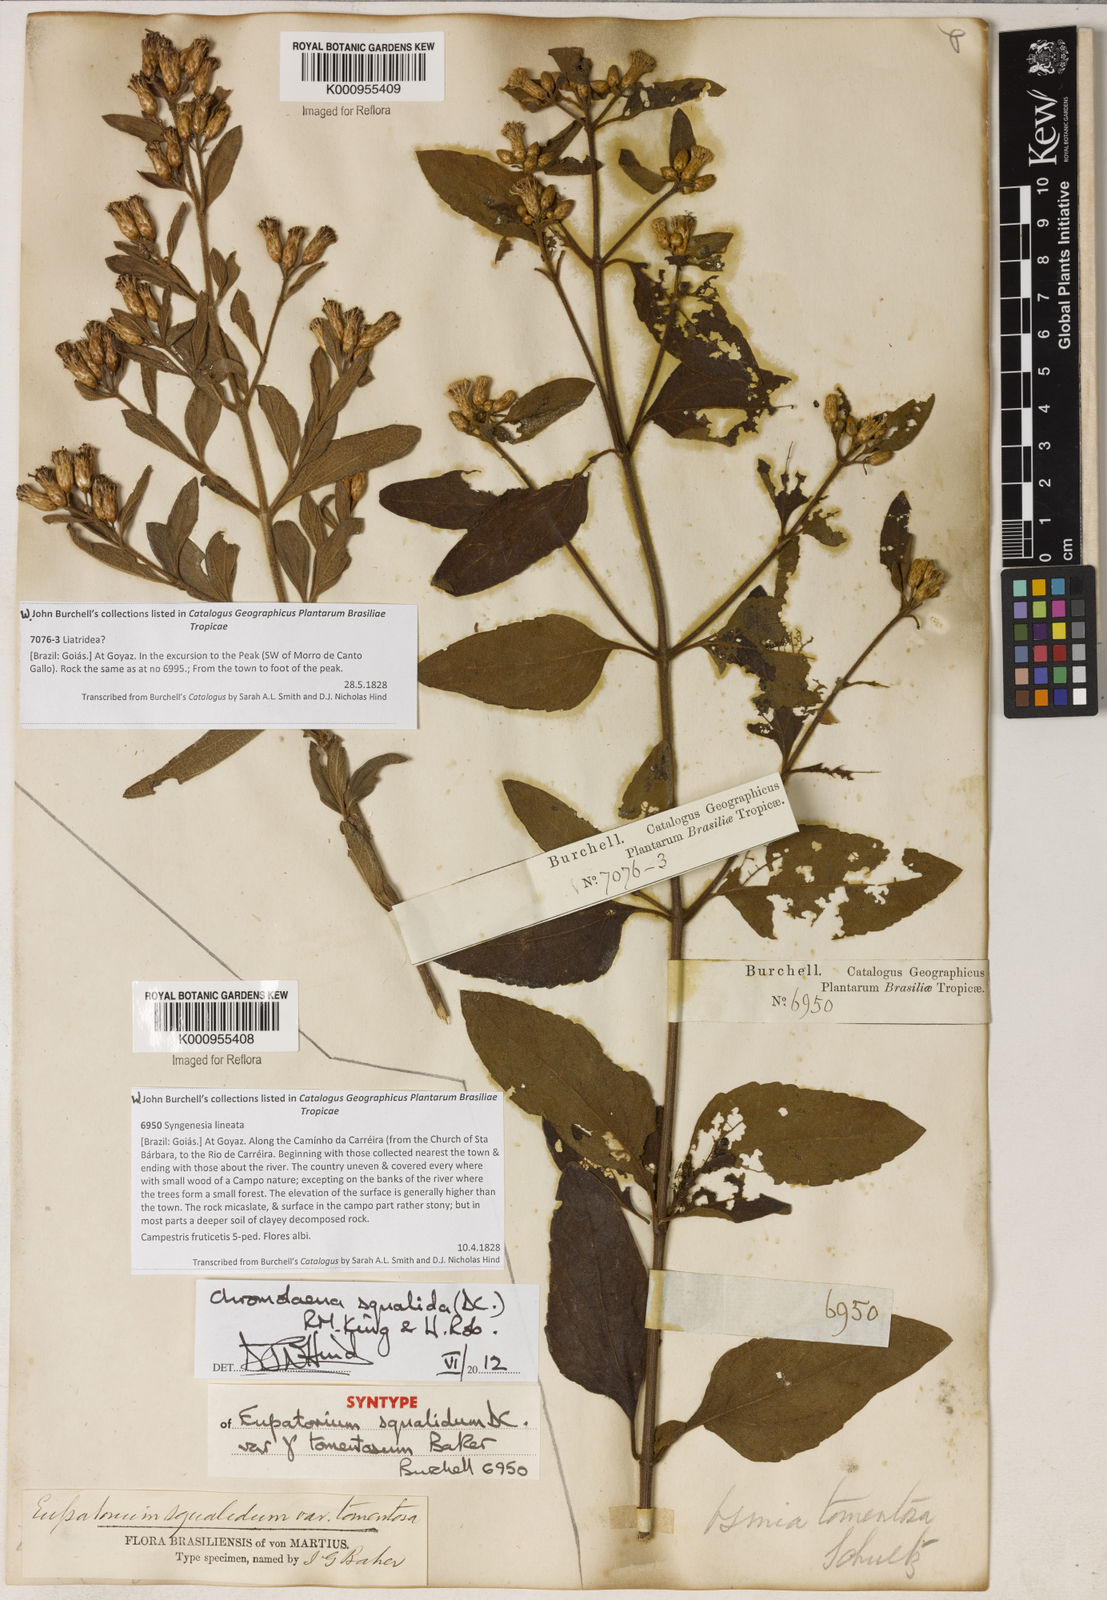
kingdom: Plantae
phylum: Tracheophyta
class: Magnoliopsida
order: Asterales
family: Asteraceae
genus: Chromolaena
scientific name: Chromolaena squalida
